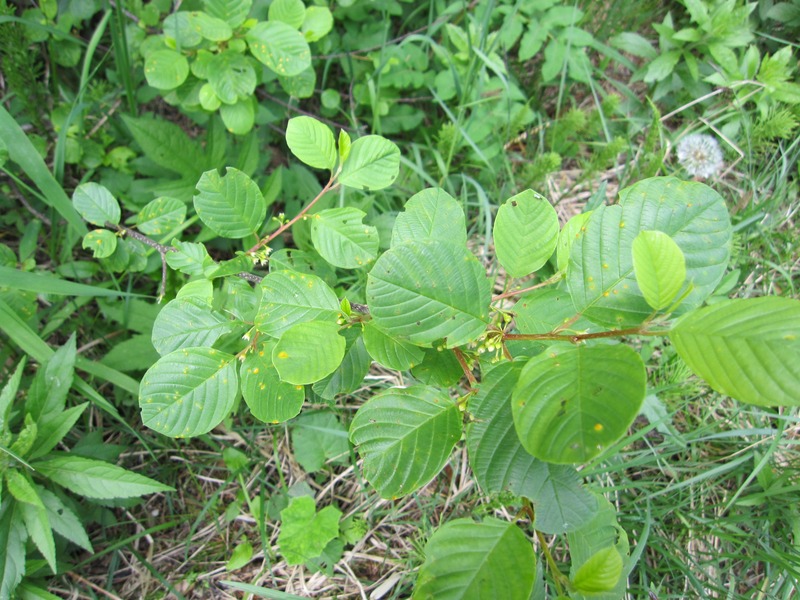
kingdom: Fungi
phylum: Basidiomycota
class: Pucciniomycetes
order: Pucciniales
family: Pucciniaceae
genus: Puccinia
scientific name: Puccinia coronata
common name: Crown rust
